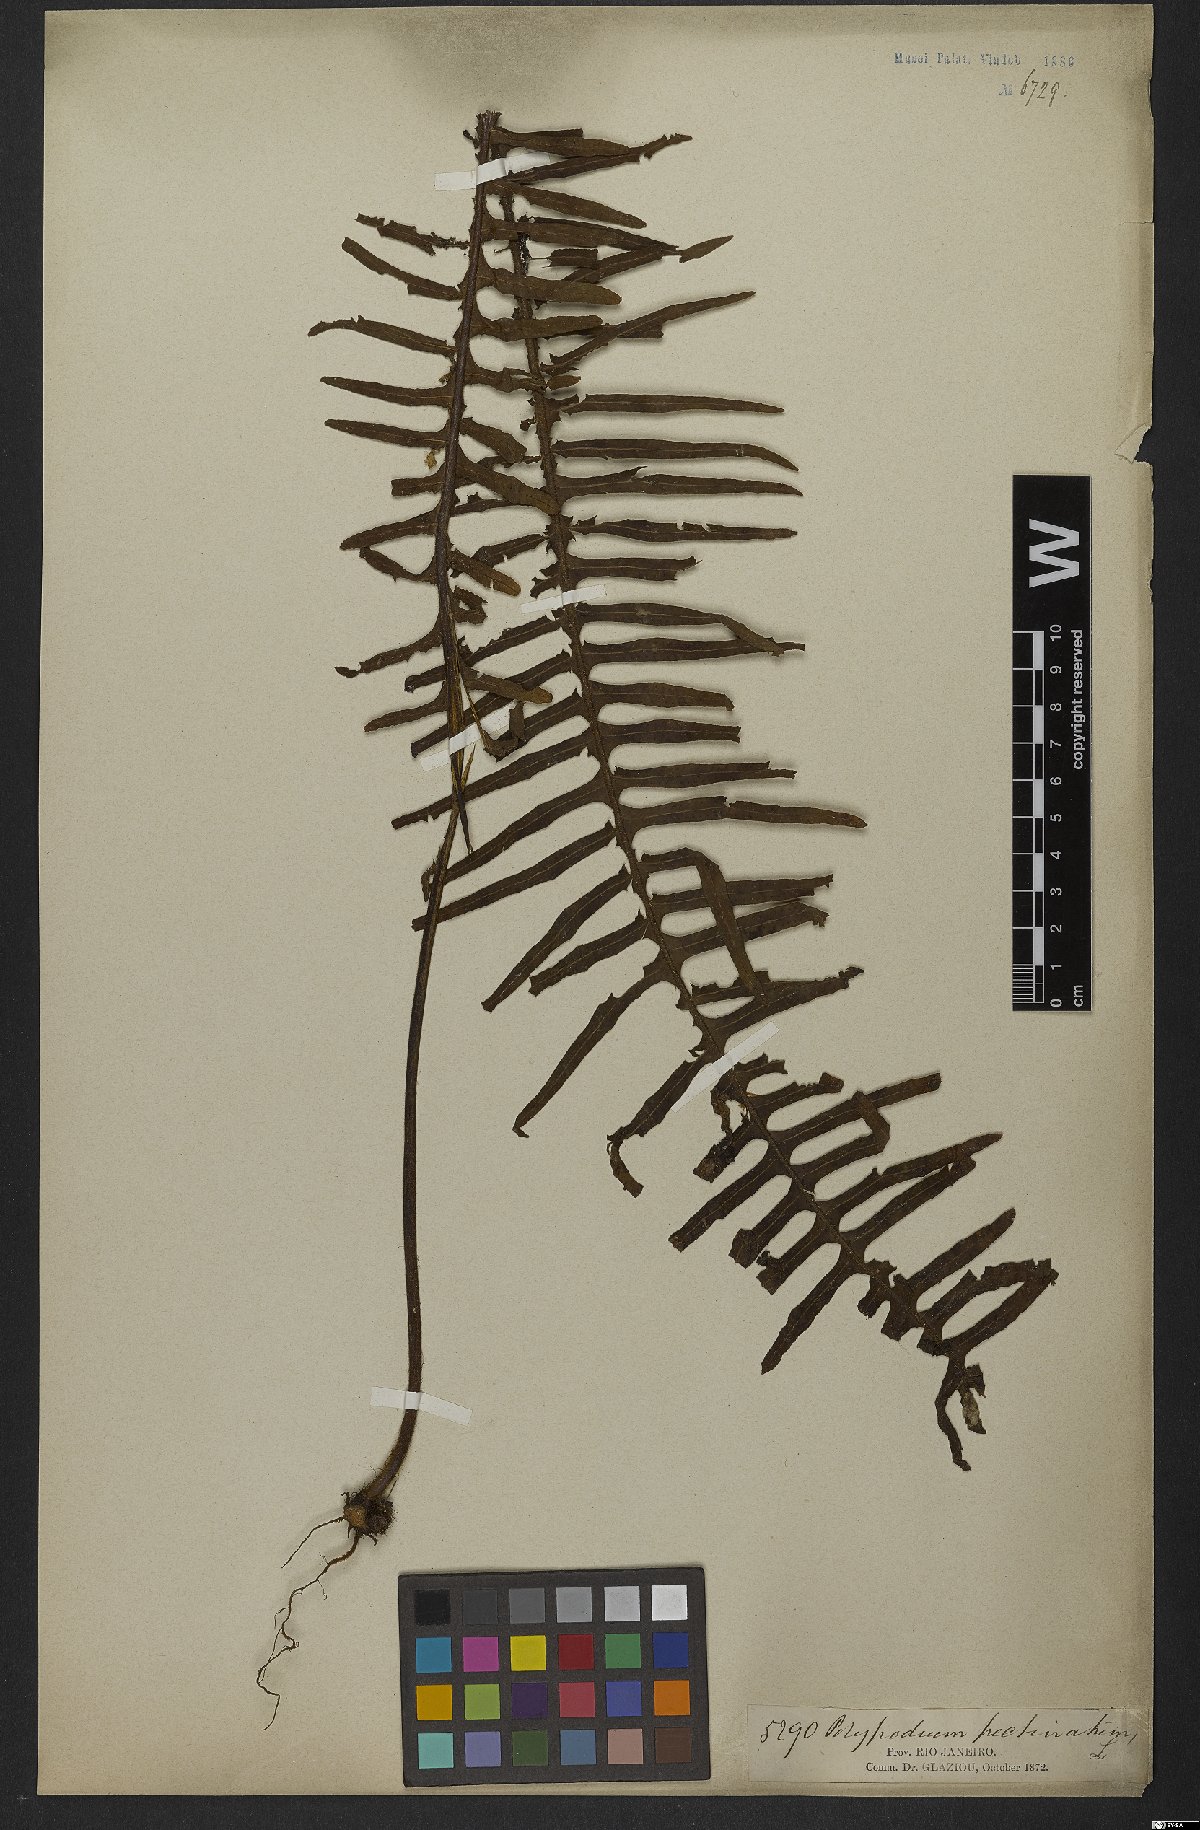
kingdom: Plantae
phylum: Tracheophyta
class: Polypodiopsida
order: Polypodiales
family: Polypodiaceae
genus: Pecluma
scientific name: Pecluma pectinata
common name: Msasa fern
